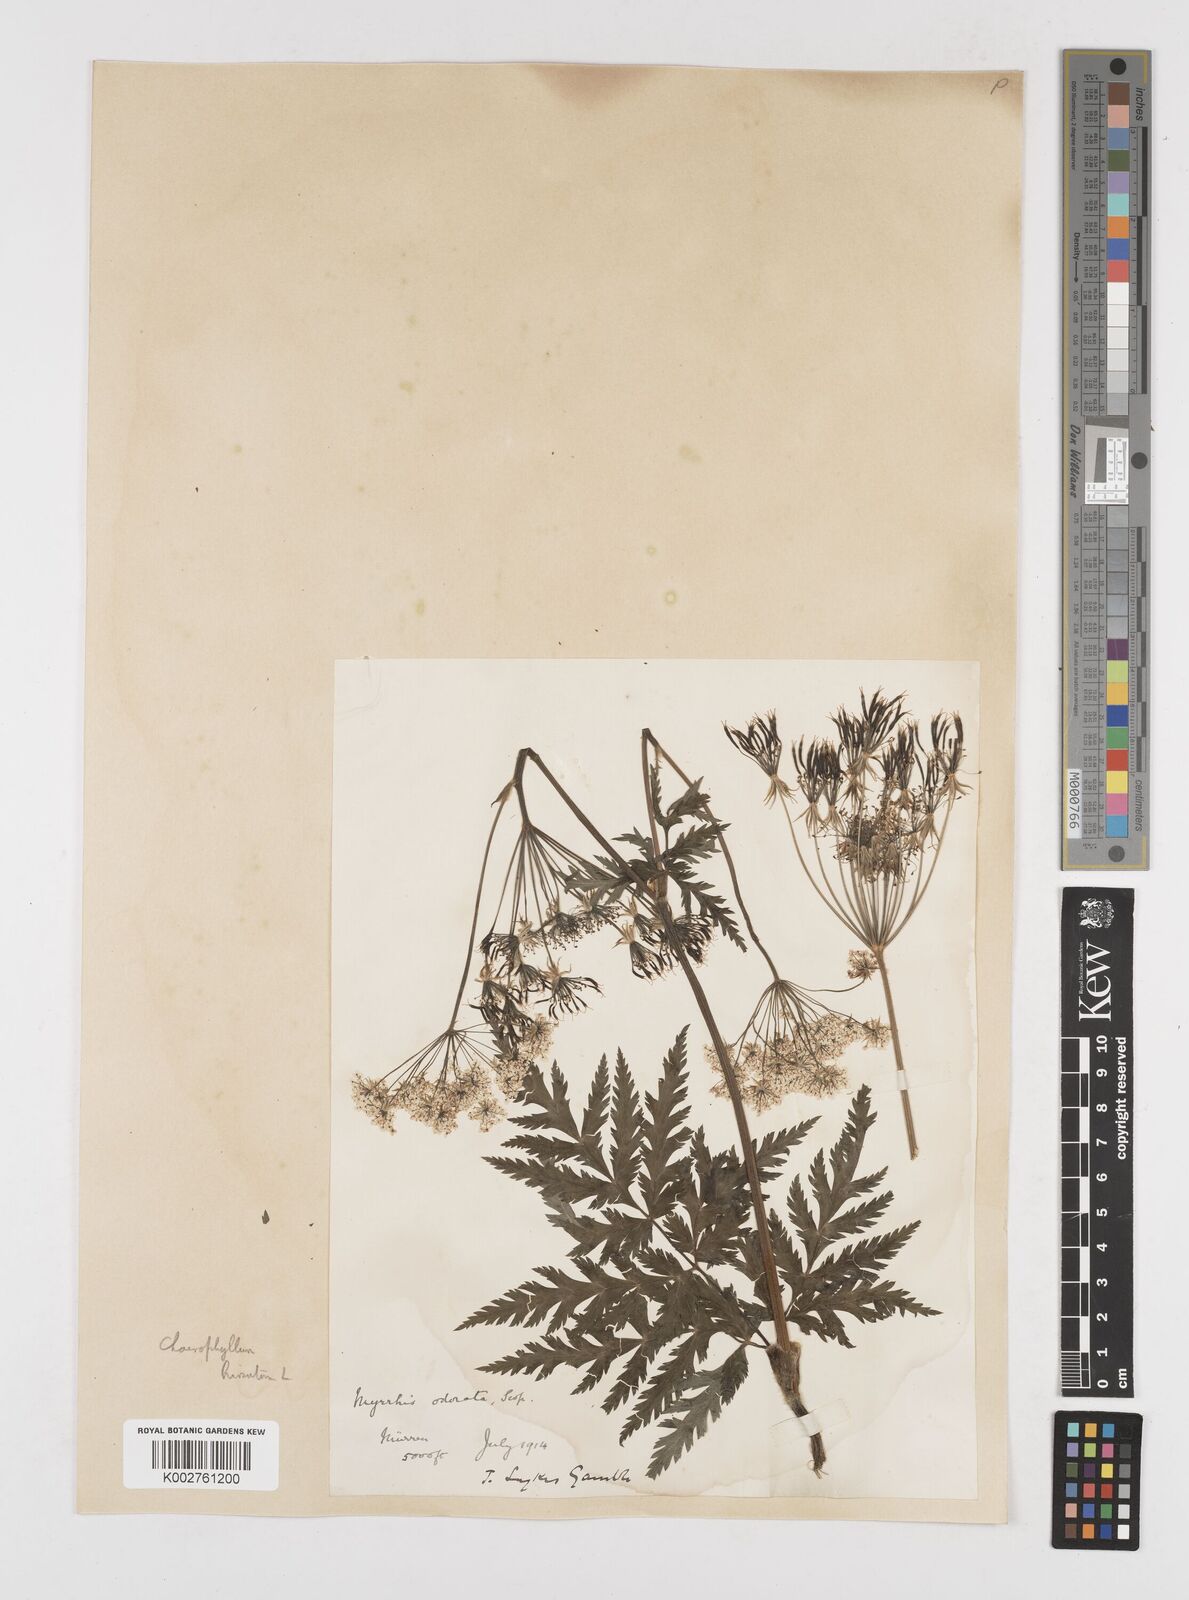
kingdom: Plantae
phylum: Tracheophyta
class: Magnoliopsida
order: Apiales
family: Apiaceae
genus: Chaerophyllum
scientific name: Chaerophyllum hirsutum
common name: Hairy chervil
